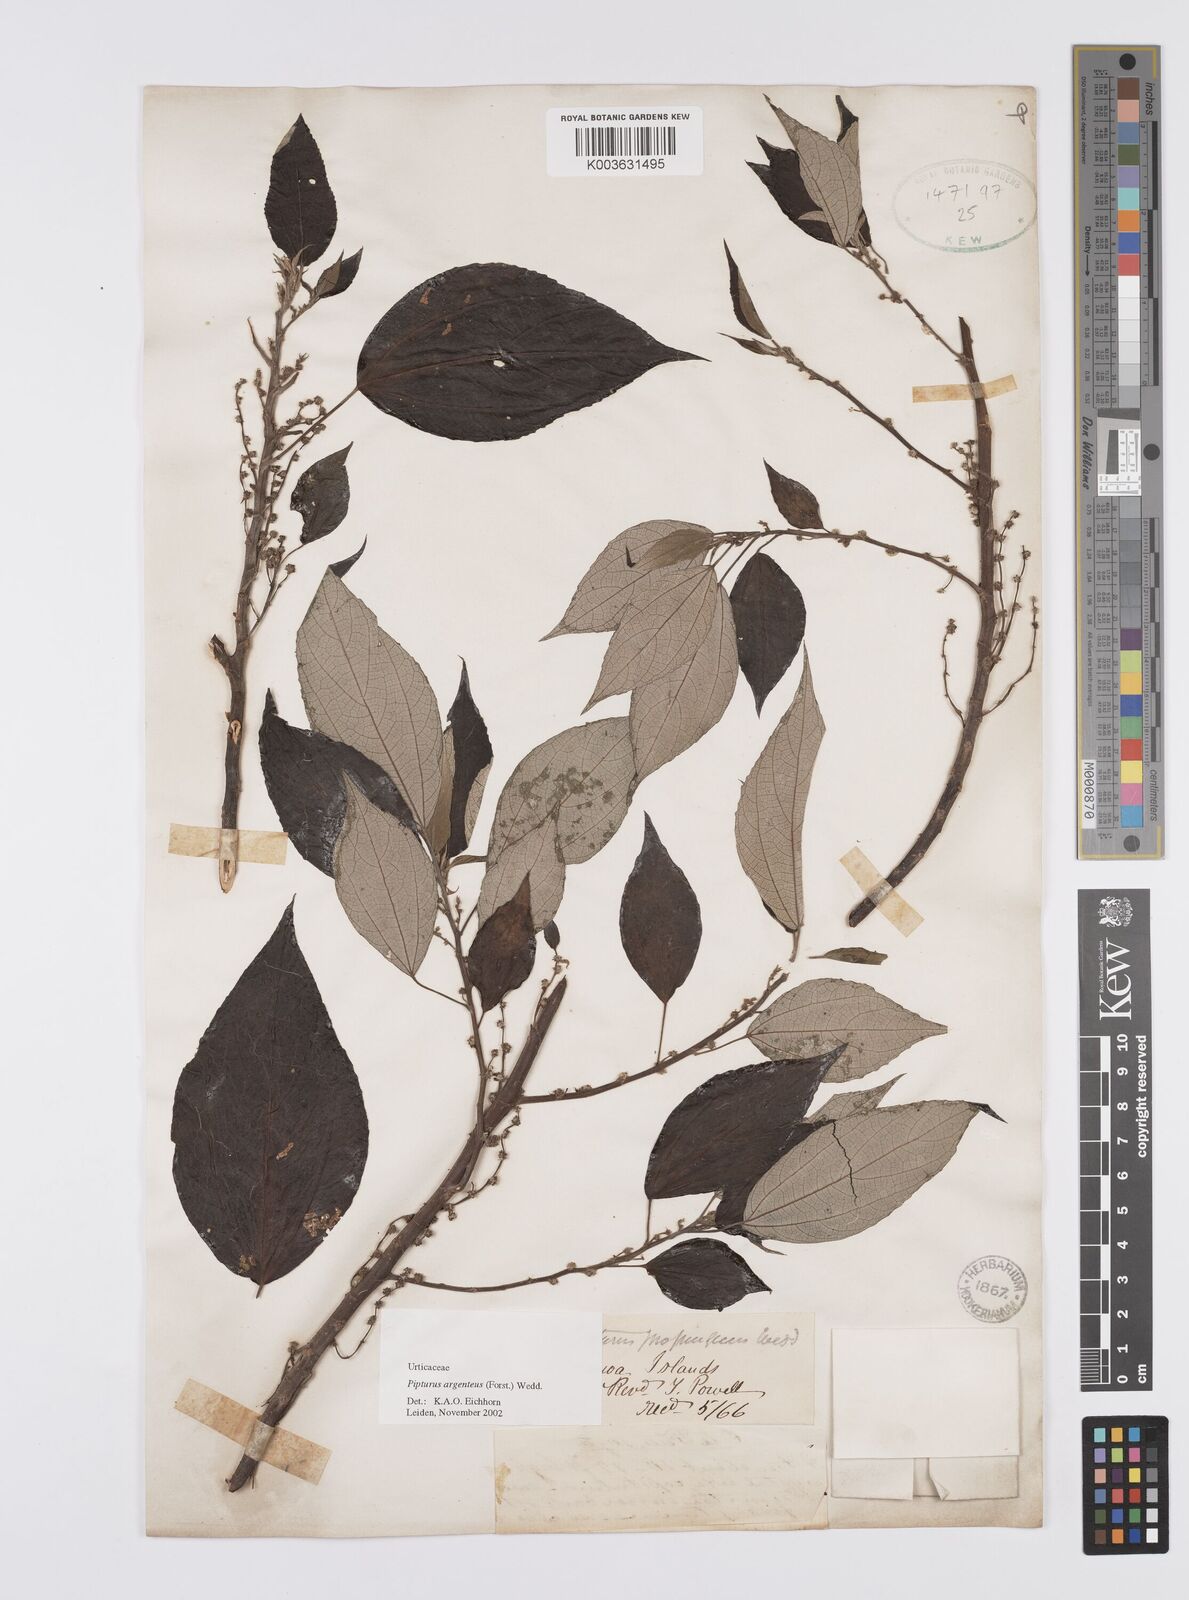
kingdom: Plantae
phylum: Tracheophyta
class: Magnoliopsida
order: Rosales
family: Urticaceae
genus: Pipturus
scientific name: Pipturus argenteus
